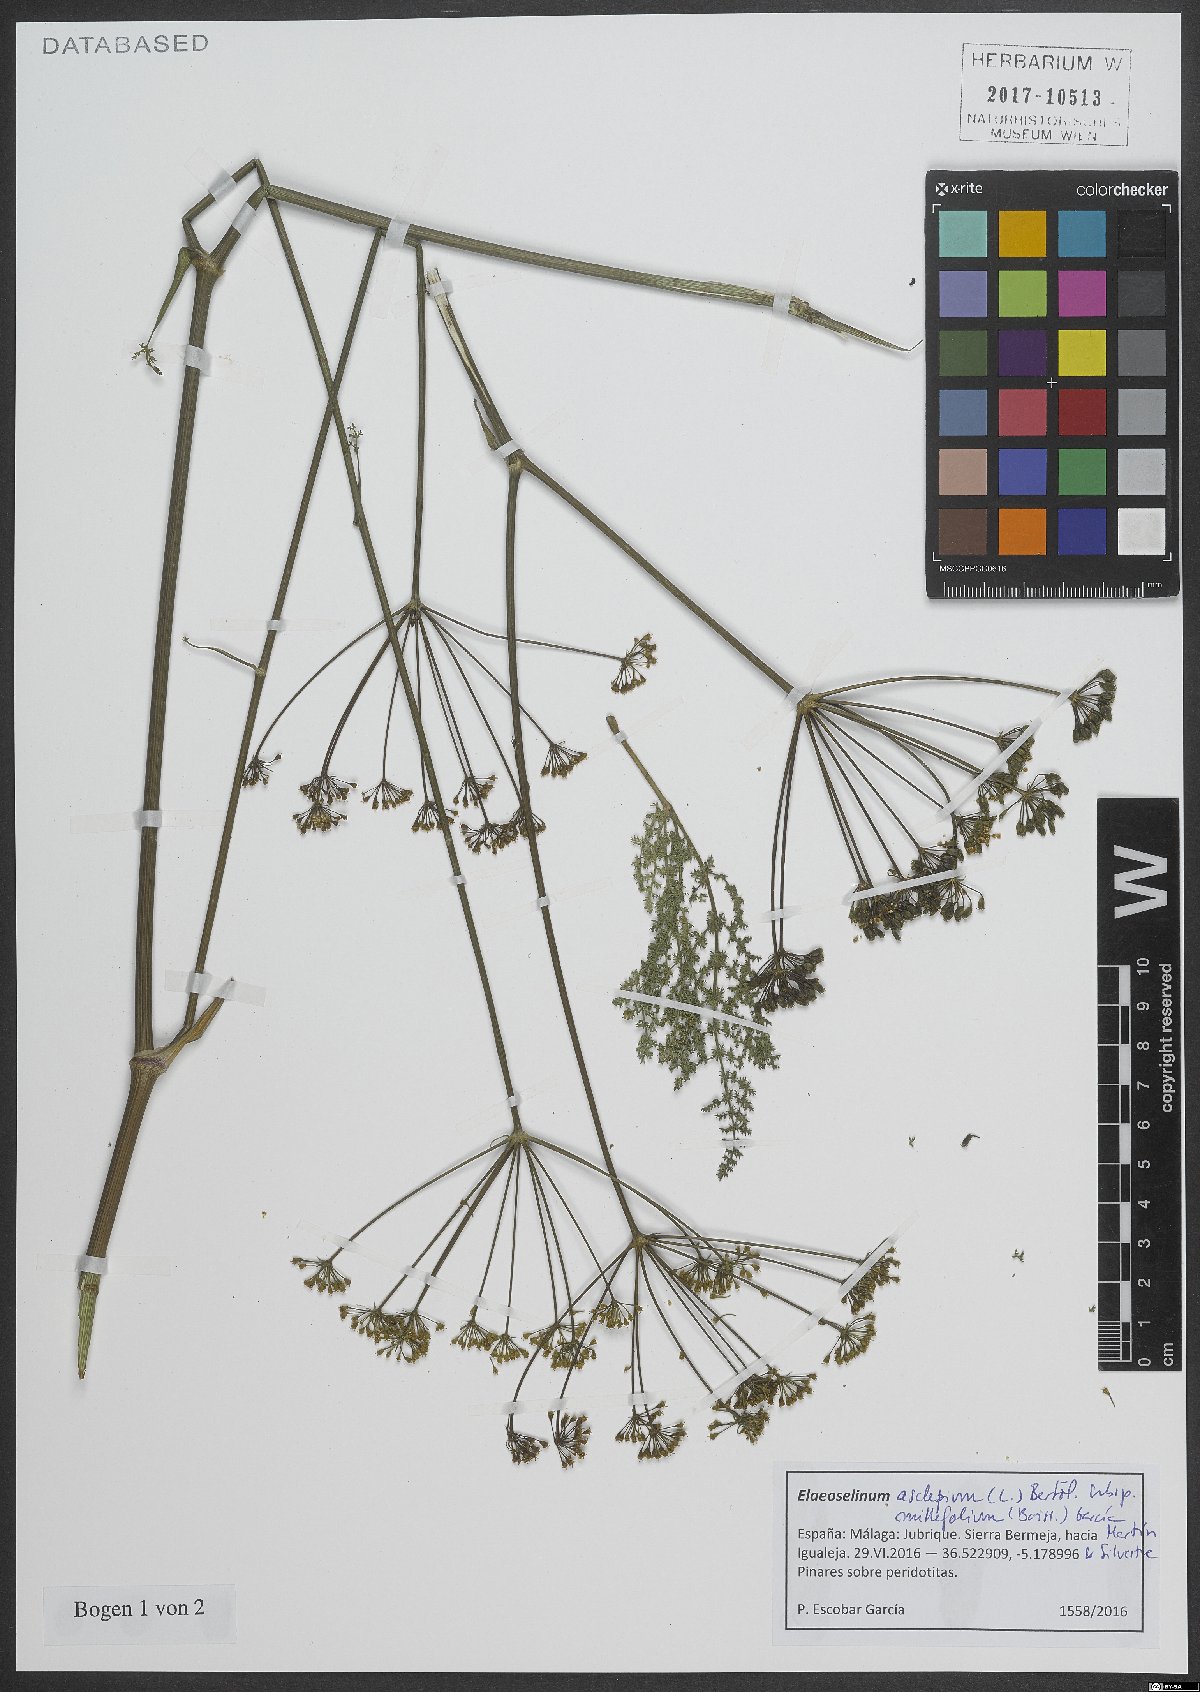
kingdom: Plantae
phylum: Tracheophyta
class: Magnoliopsida
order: Apiales
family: Apiaceae
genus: Thapsia
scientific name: Thapsia asclepium
